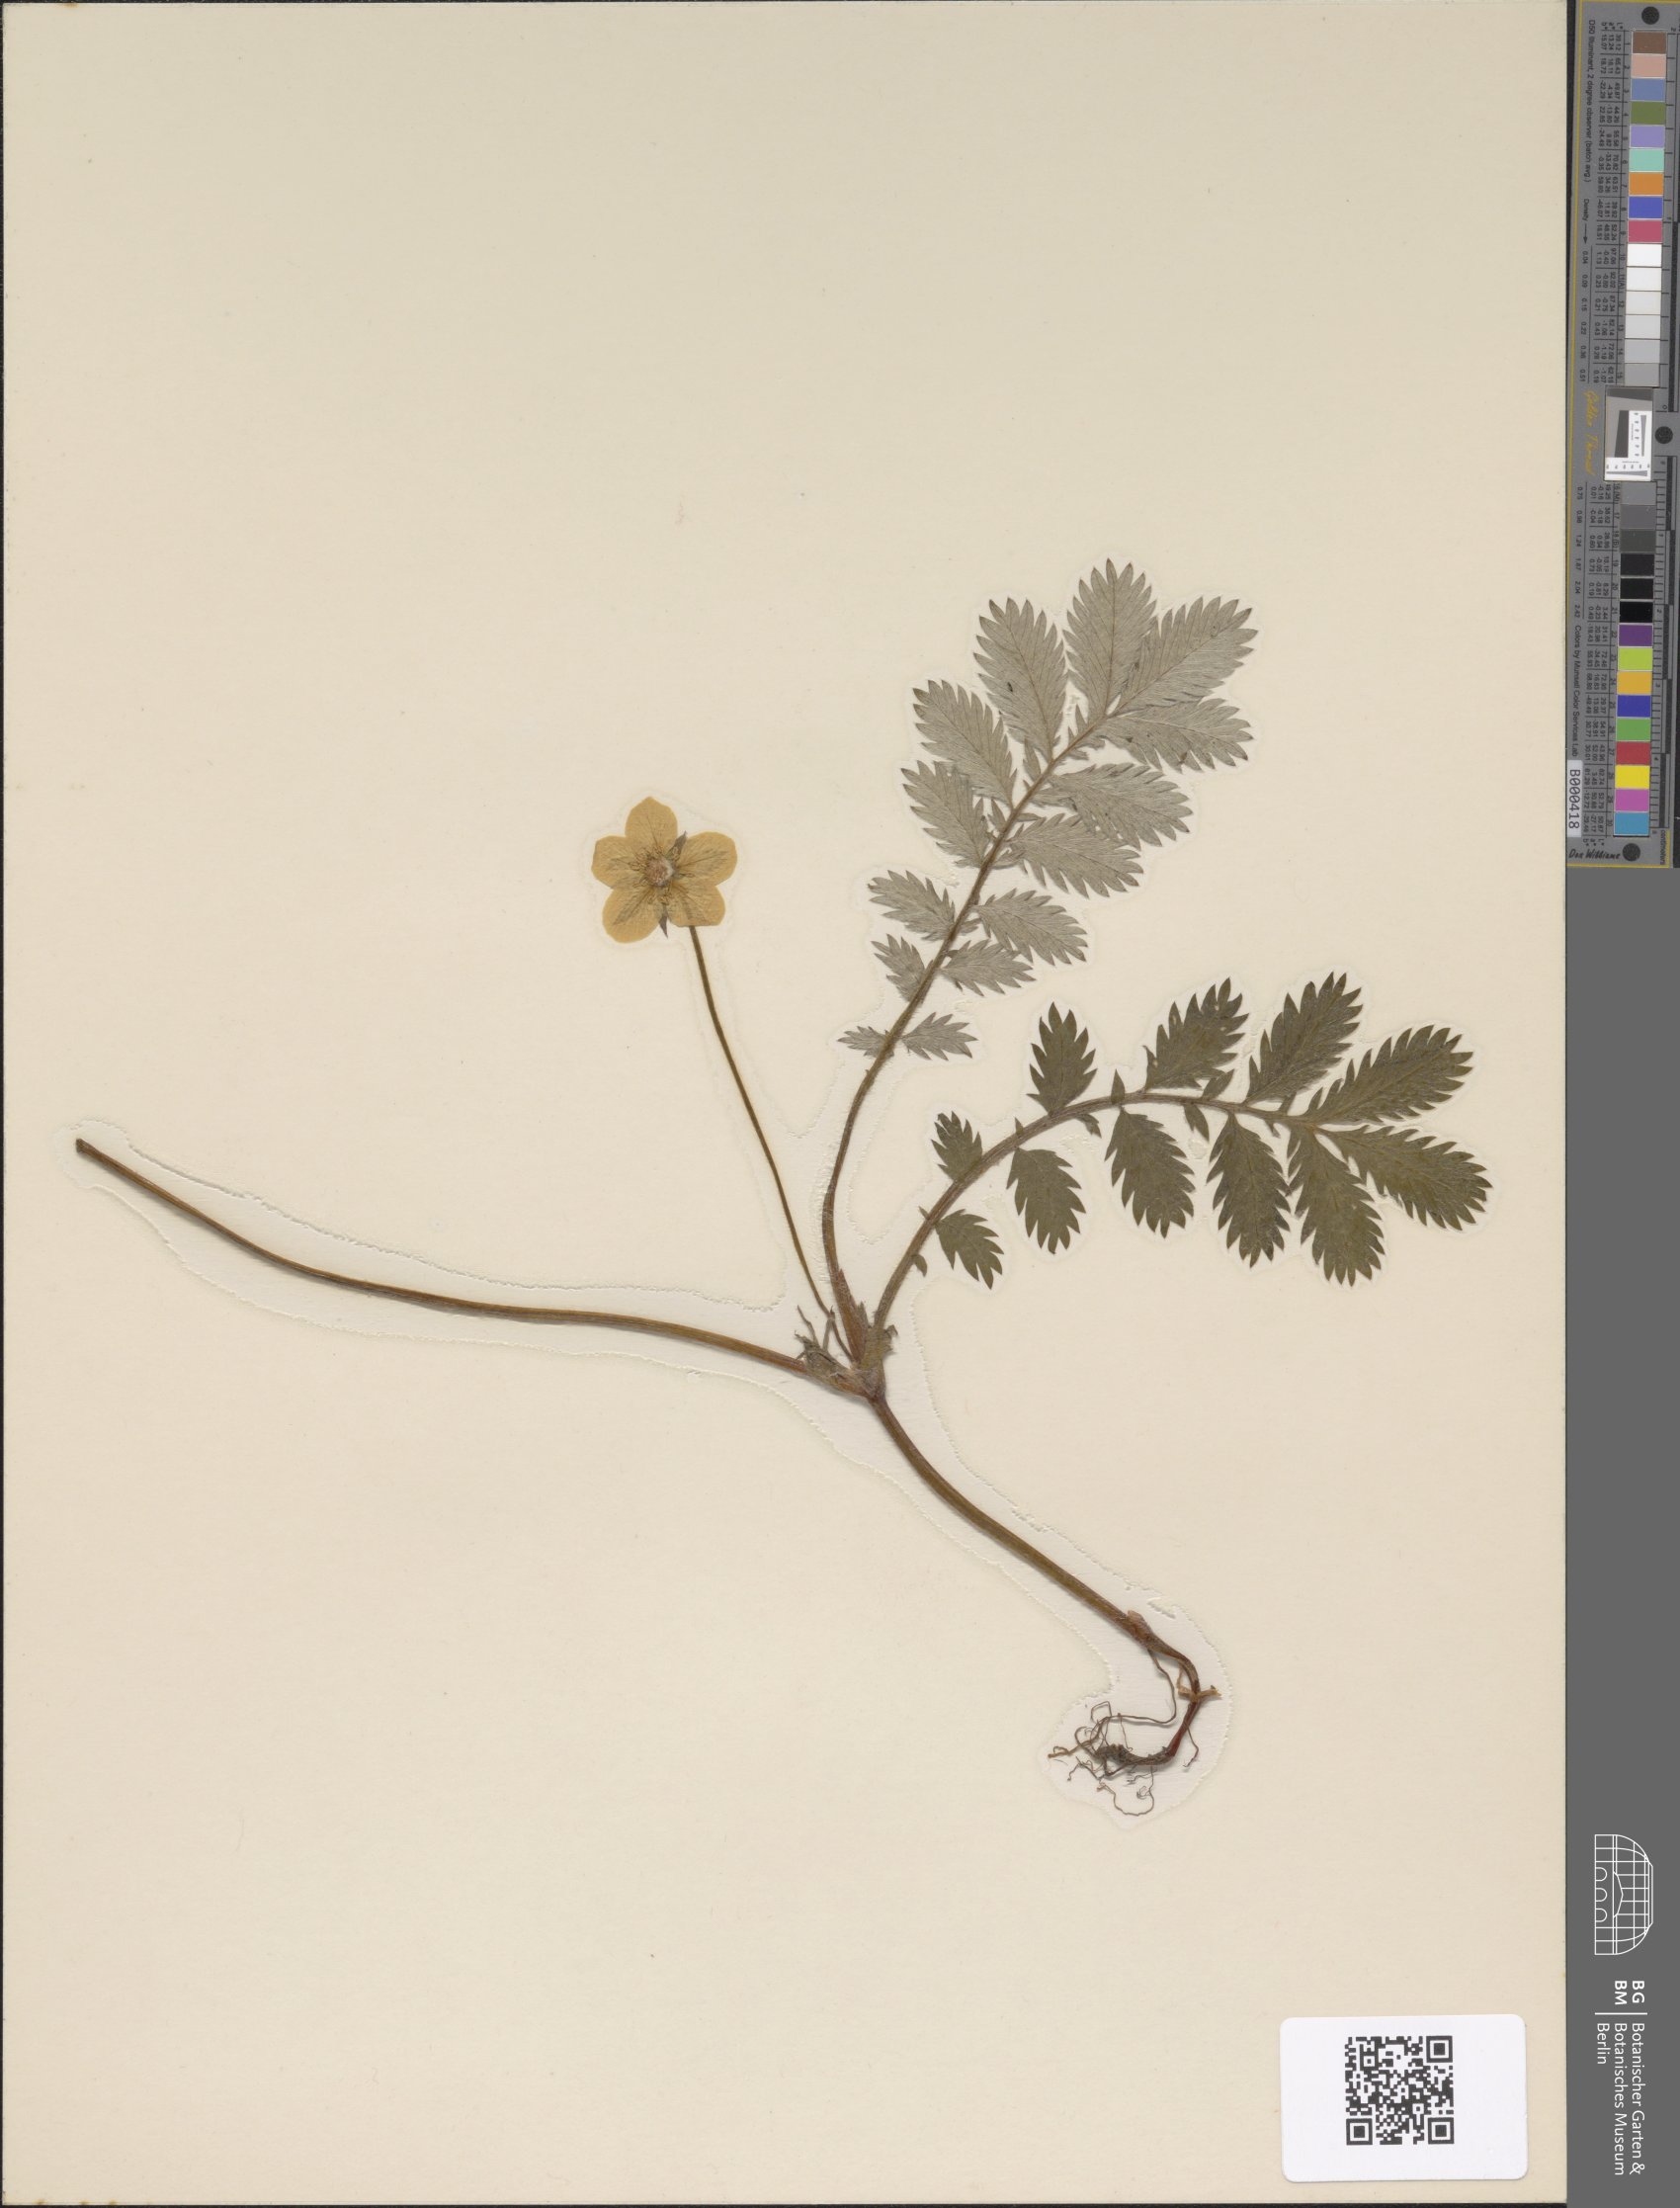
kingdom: Plantae
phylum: Tracheophyta
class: Magnoliopsida
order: Rosales
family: Rosaceae
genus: Argentina
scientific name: Argentina anserina
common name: Common silverweed
